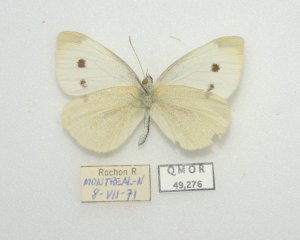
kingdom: Animalia
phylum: Arthropoda
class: Insecta
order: Lepidoptera
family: Pieridae
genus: Pieris
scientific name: Pieris rapae
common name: Cabbage White
